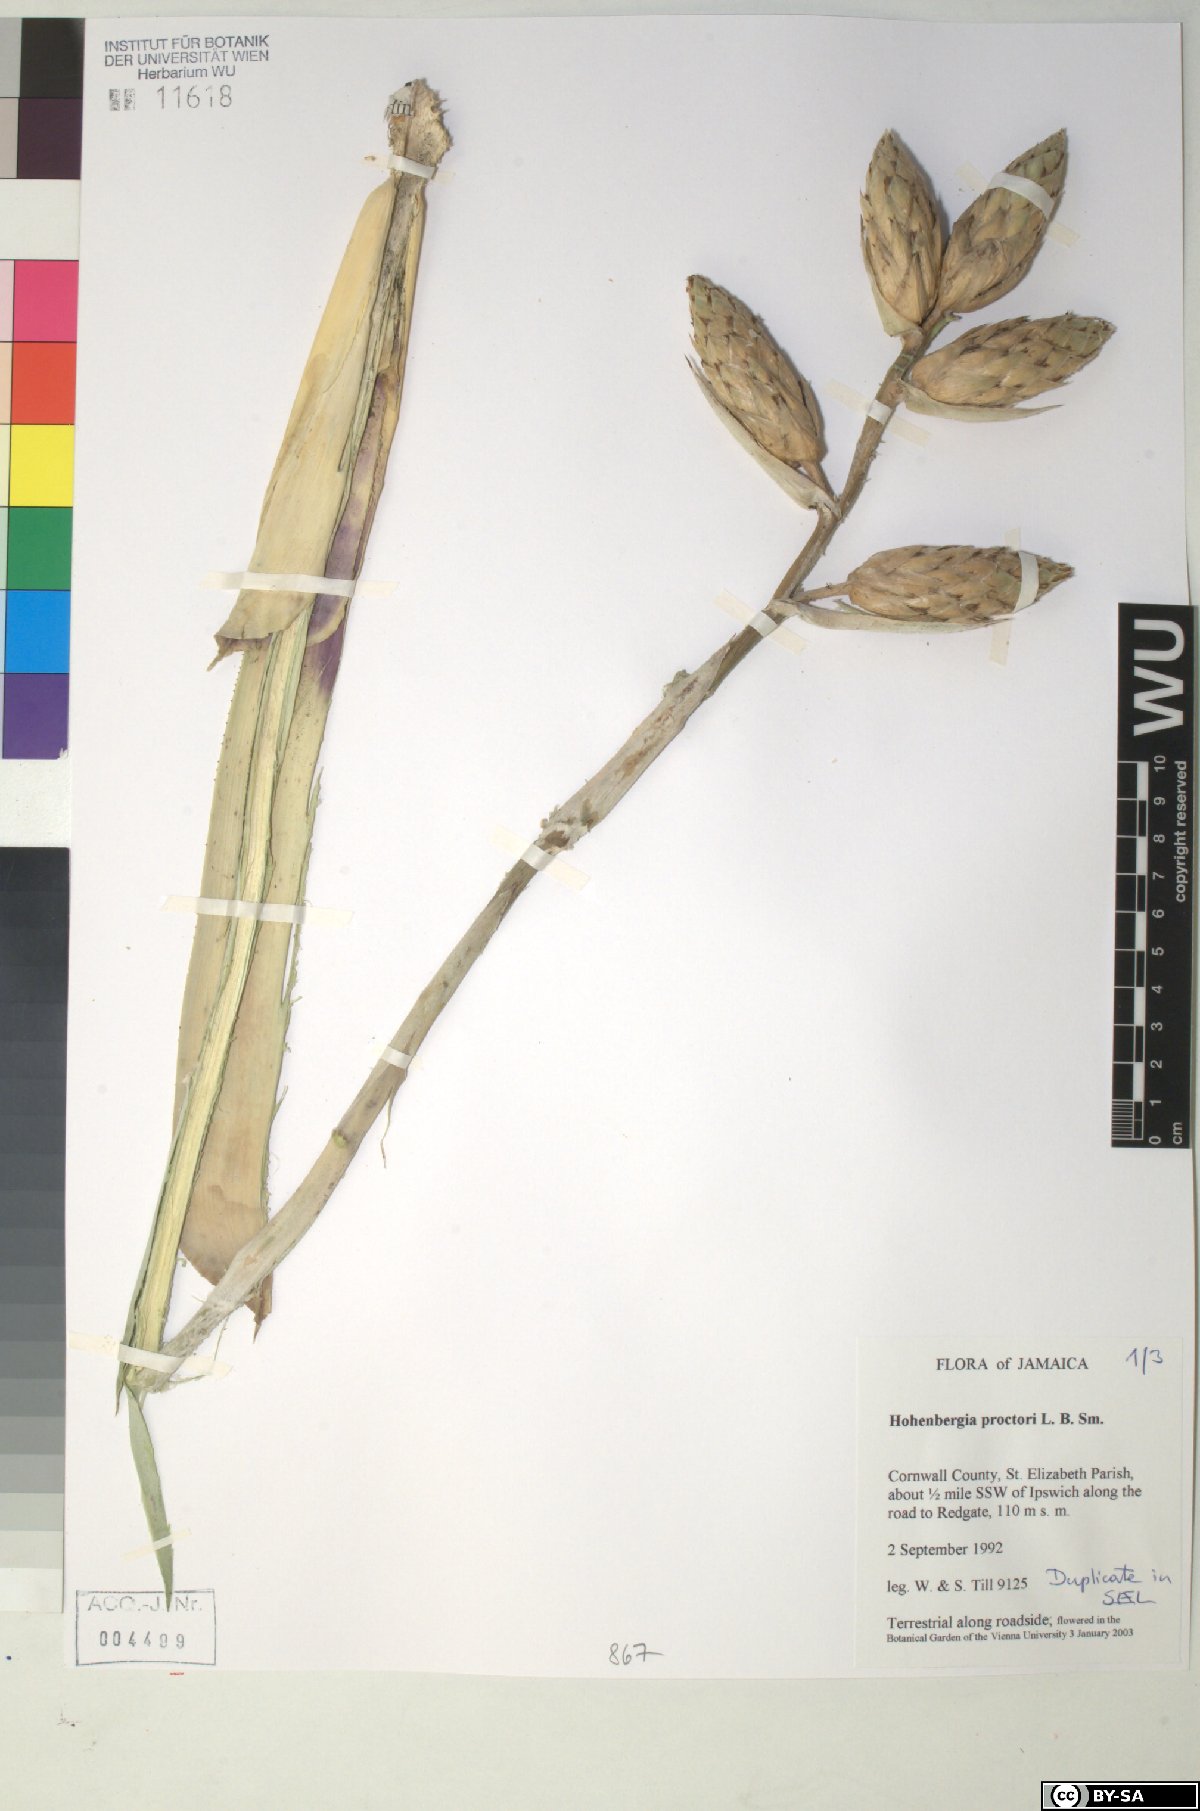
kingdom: Plantae
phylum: Tracheophyta
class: Liliopsida
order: Poales
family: Bromeliaceae
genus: Wittmackia
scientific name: Wittmackia urbaniana
